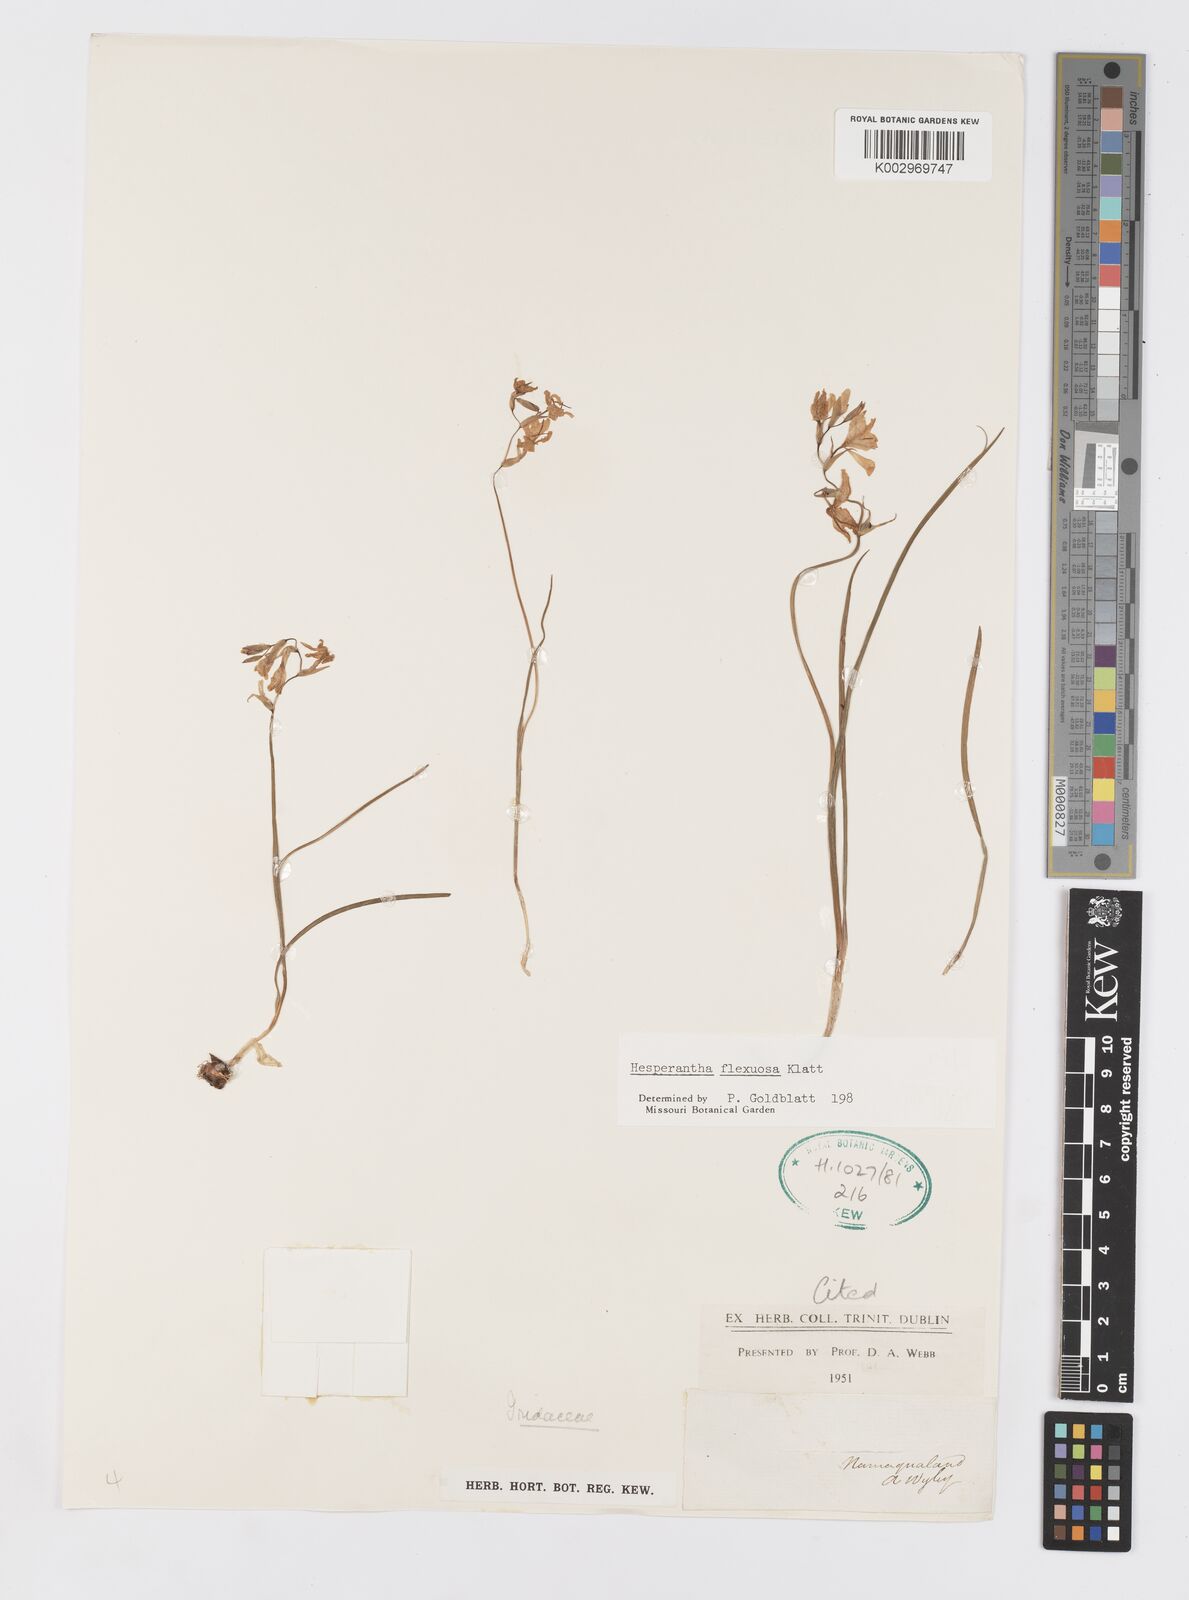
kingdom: Plantae
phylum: Tracheophyta
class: Liliopsida
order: Asparagales
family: Iridaceae
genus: Hesperantha
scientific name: Hesperantha flexuosa
